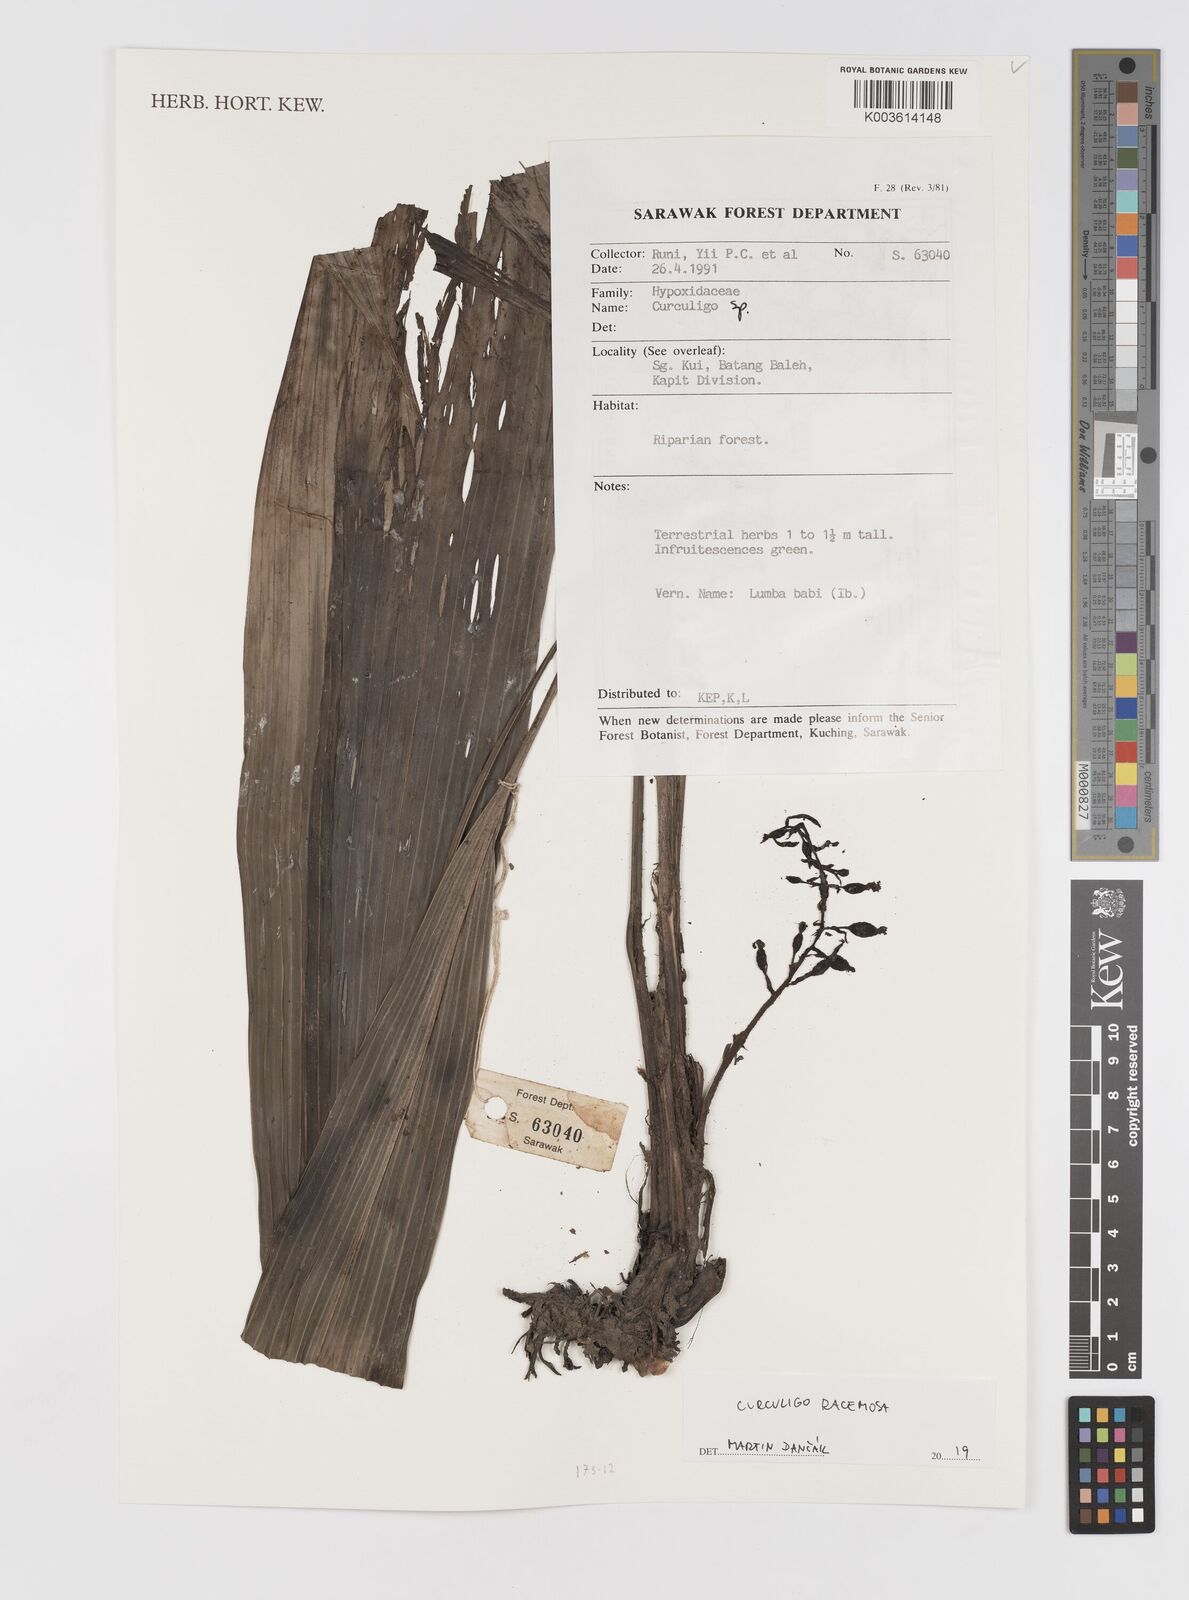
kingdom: Plantae
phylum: Tracheophyta
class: Liliopsida
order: Asparagales
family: Hypoxidaceae
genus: Curculigo
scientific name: Curculigo racemosa
